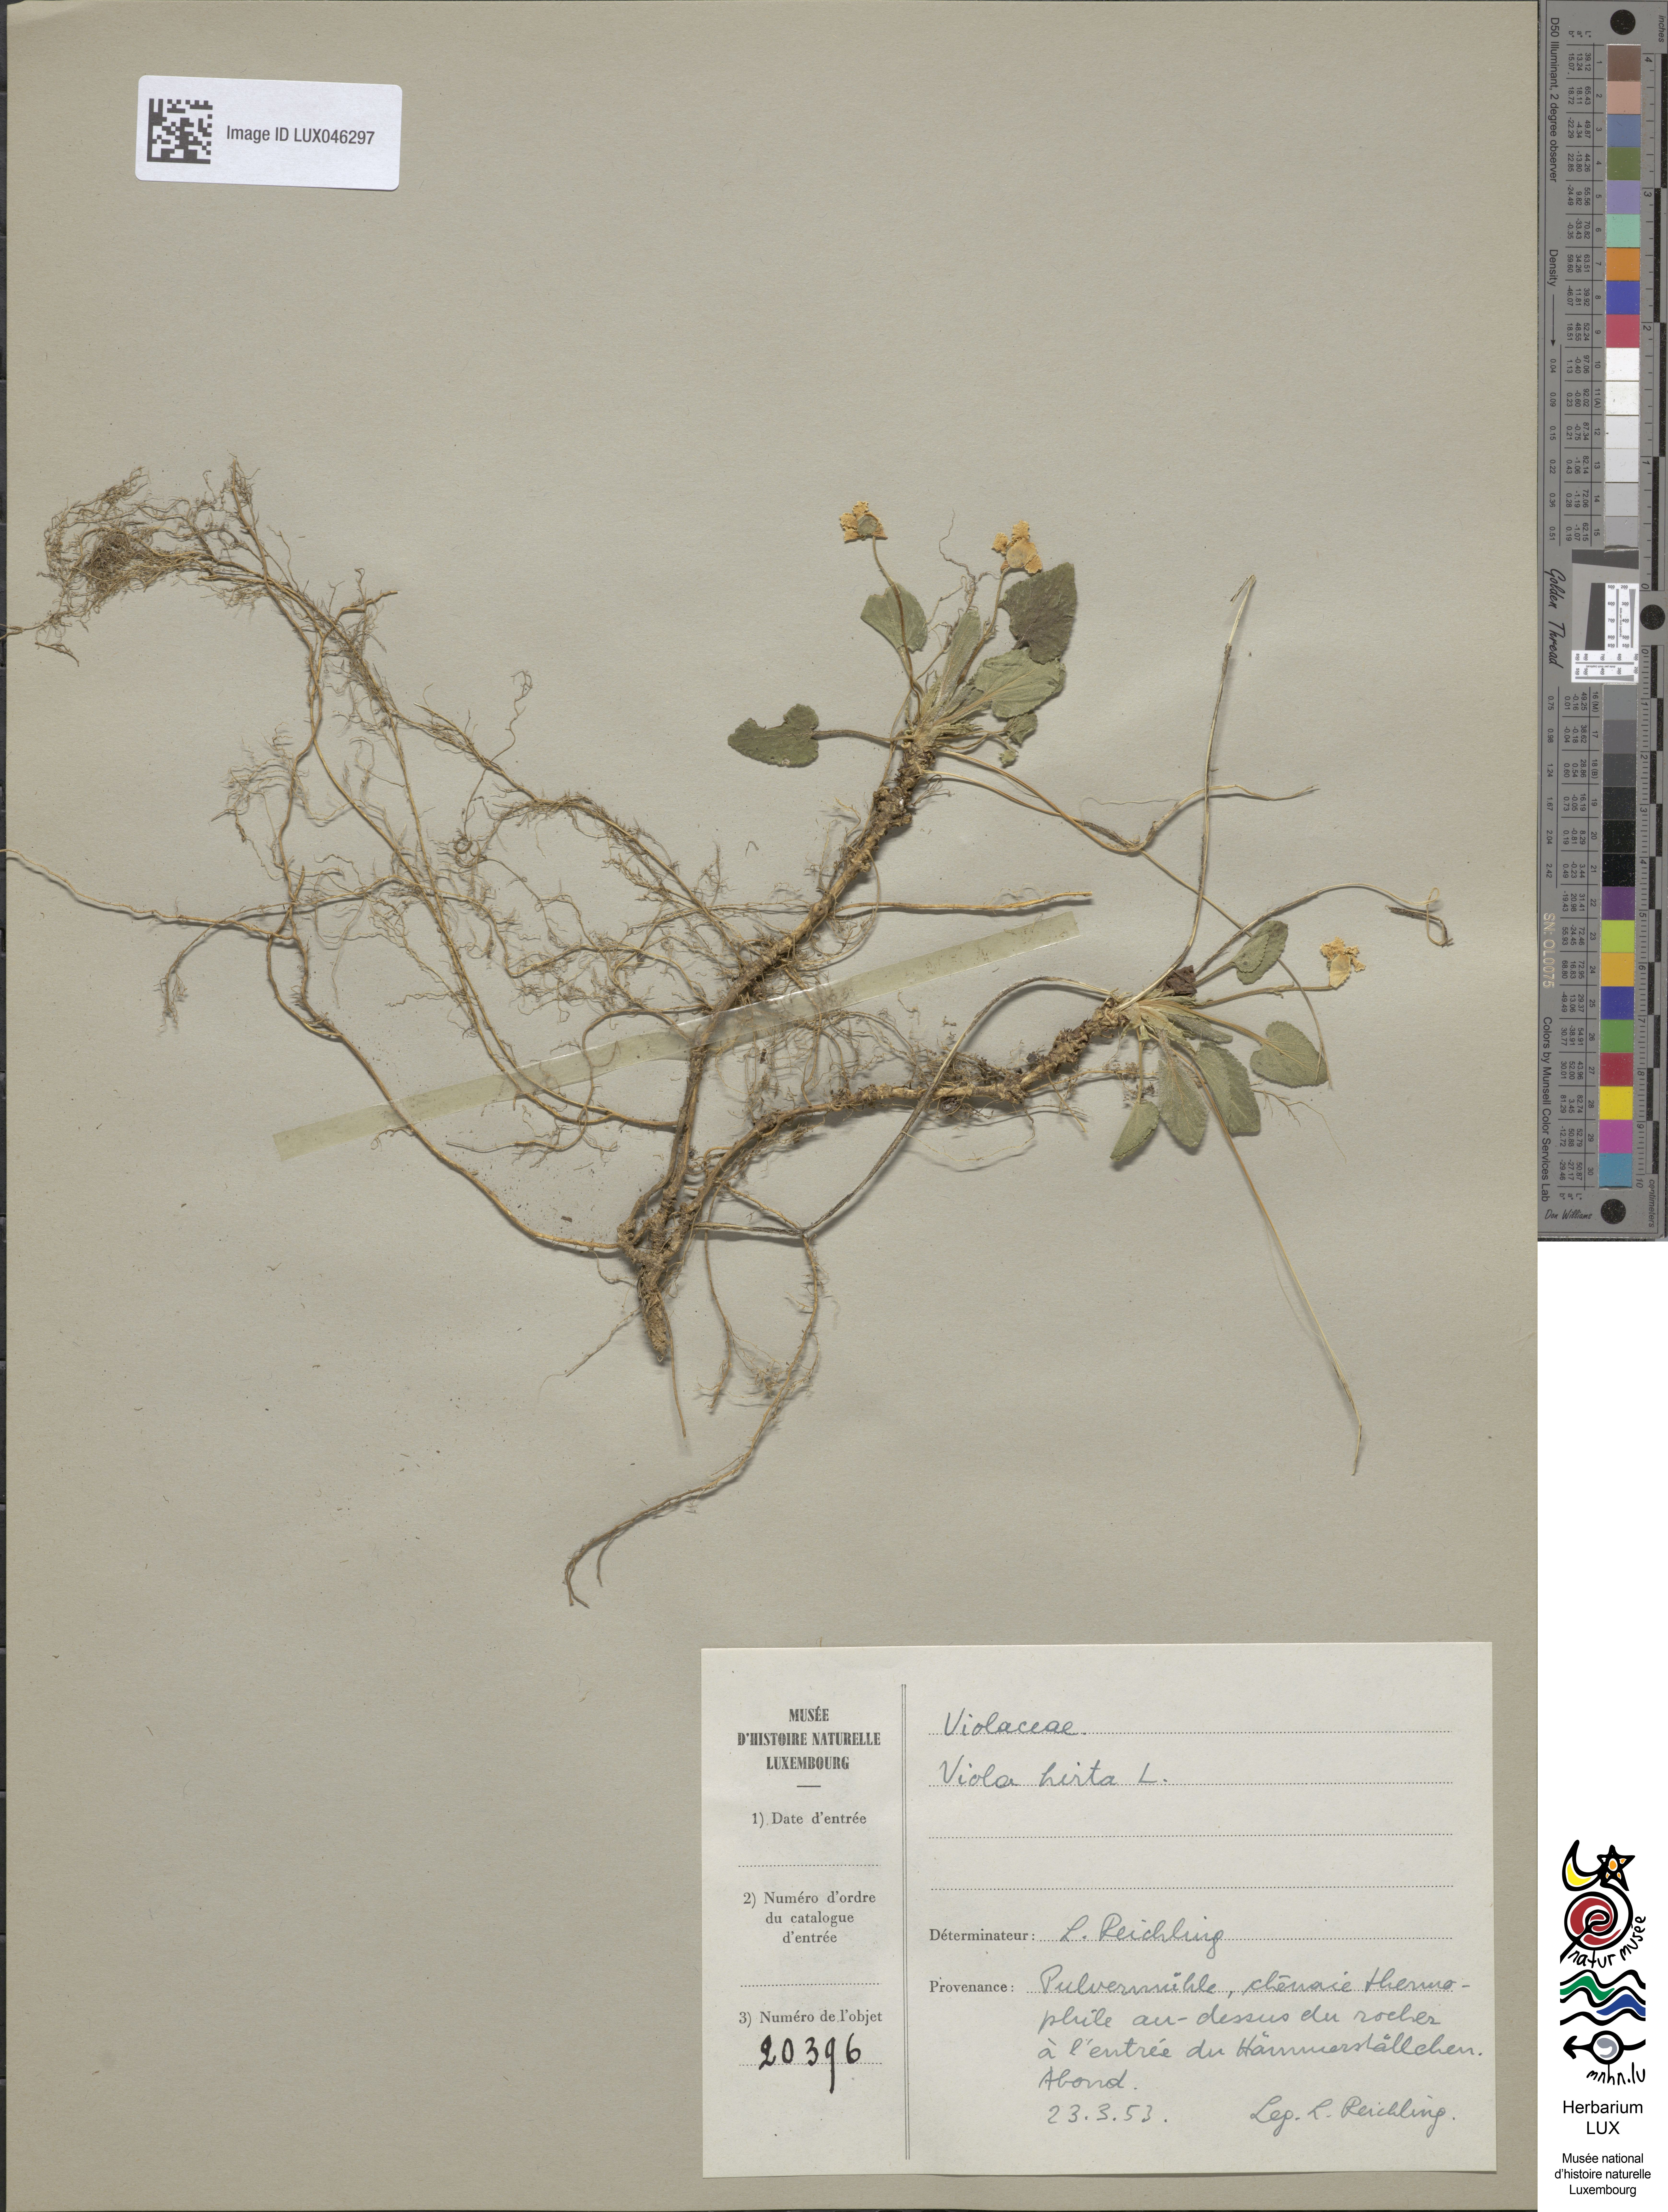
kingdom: Plantae
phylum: Tracheophyta
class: Magnoliopsida
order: Malpighiales
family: Violaceae
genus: Viola
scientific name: Viola hirta
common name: Hairy violet
